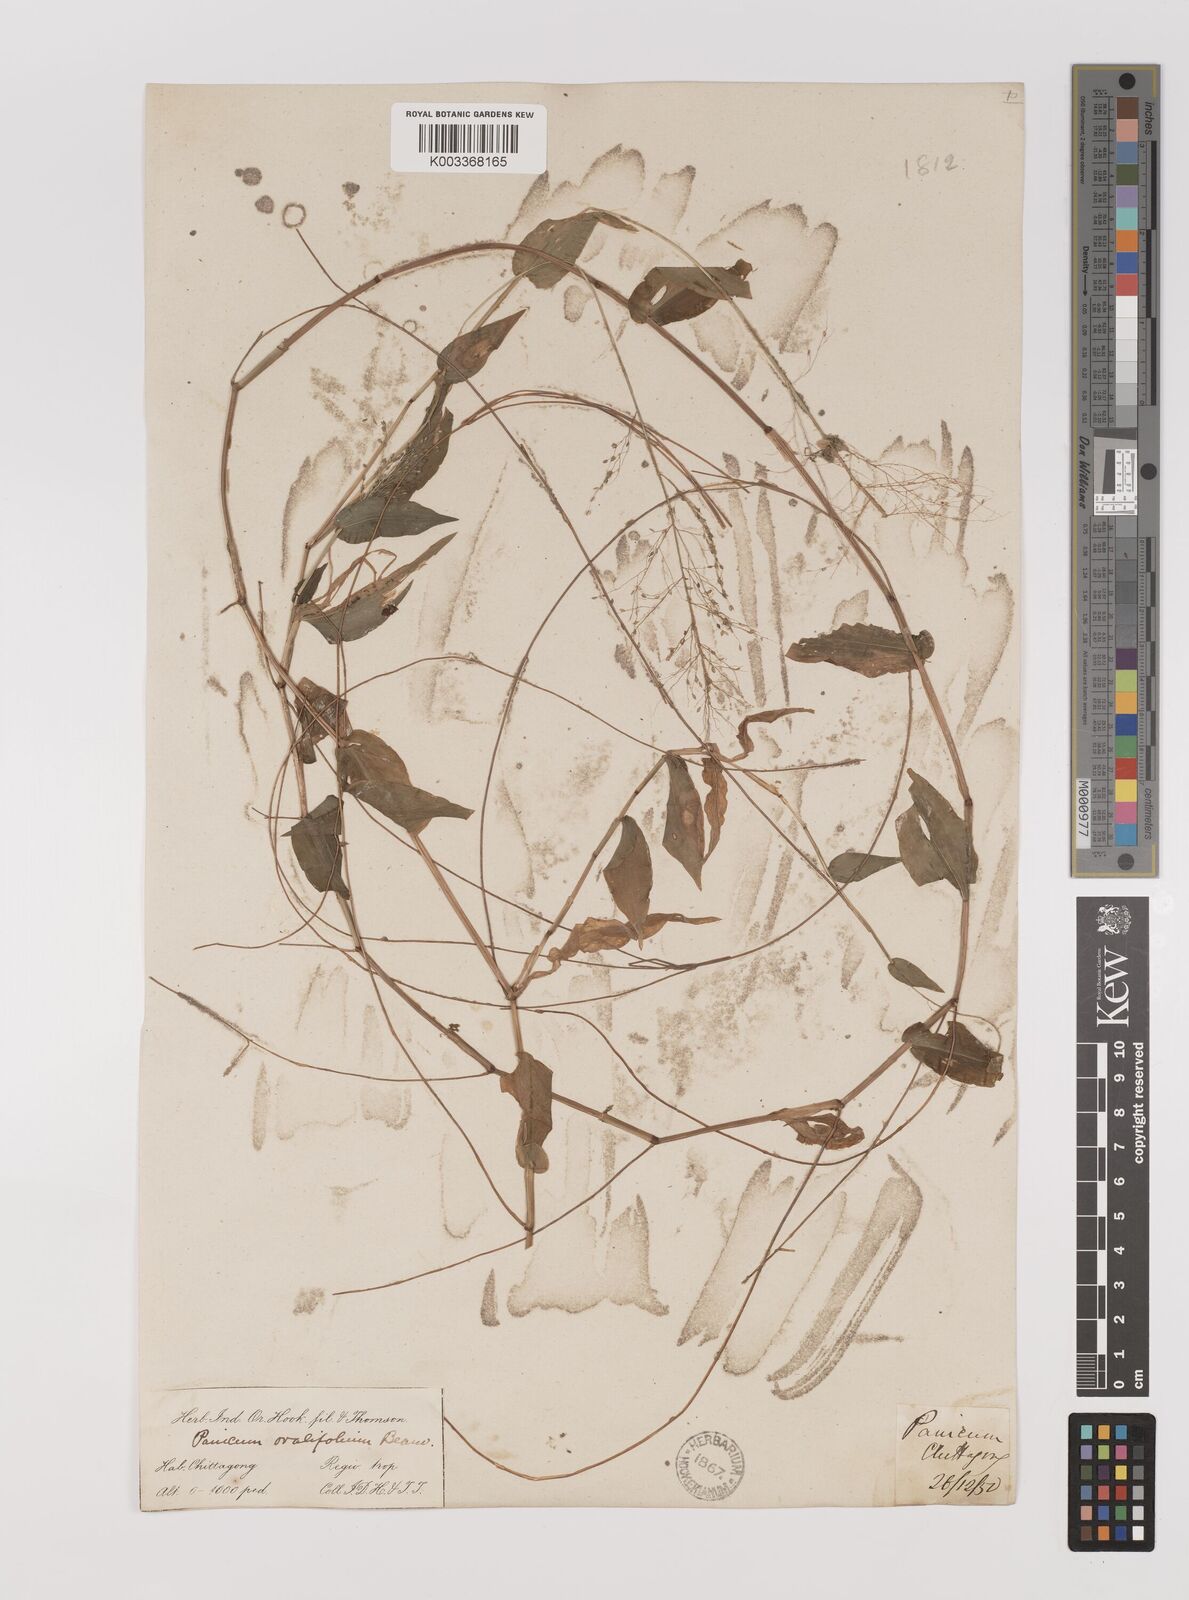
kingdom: Plantae
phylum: Tracheophyta
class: Liliopsida
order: Poales
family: Poaceae
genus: Panicum
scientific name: Panicum brevifolium
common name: Shortleaf panic grass
